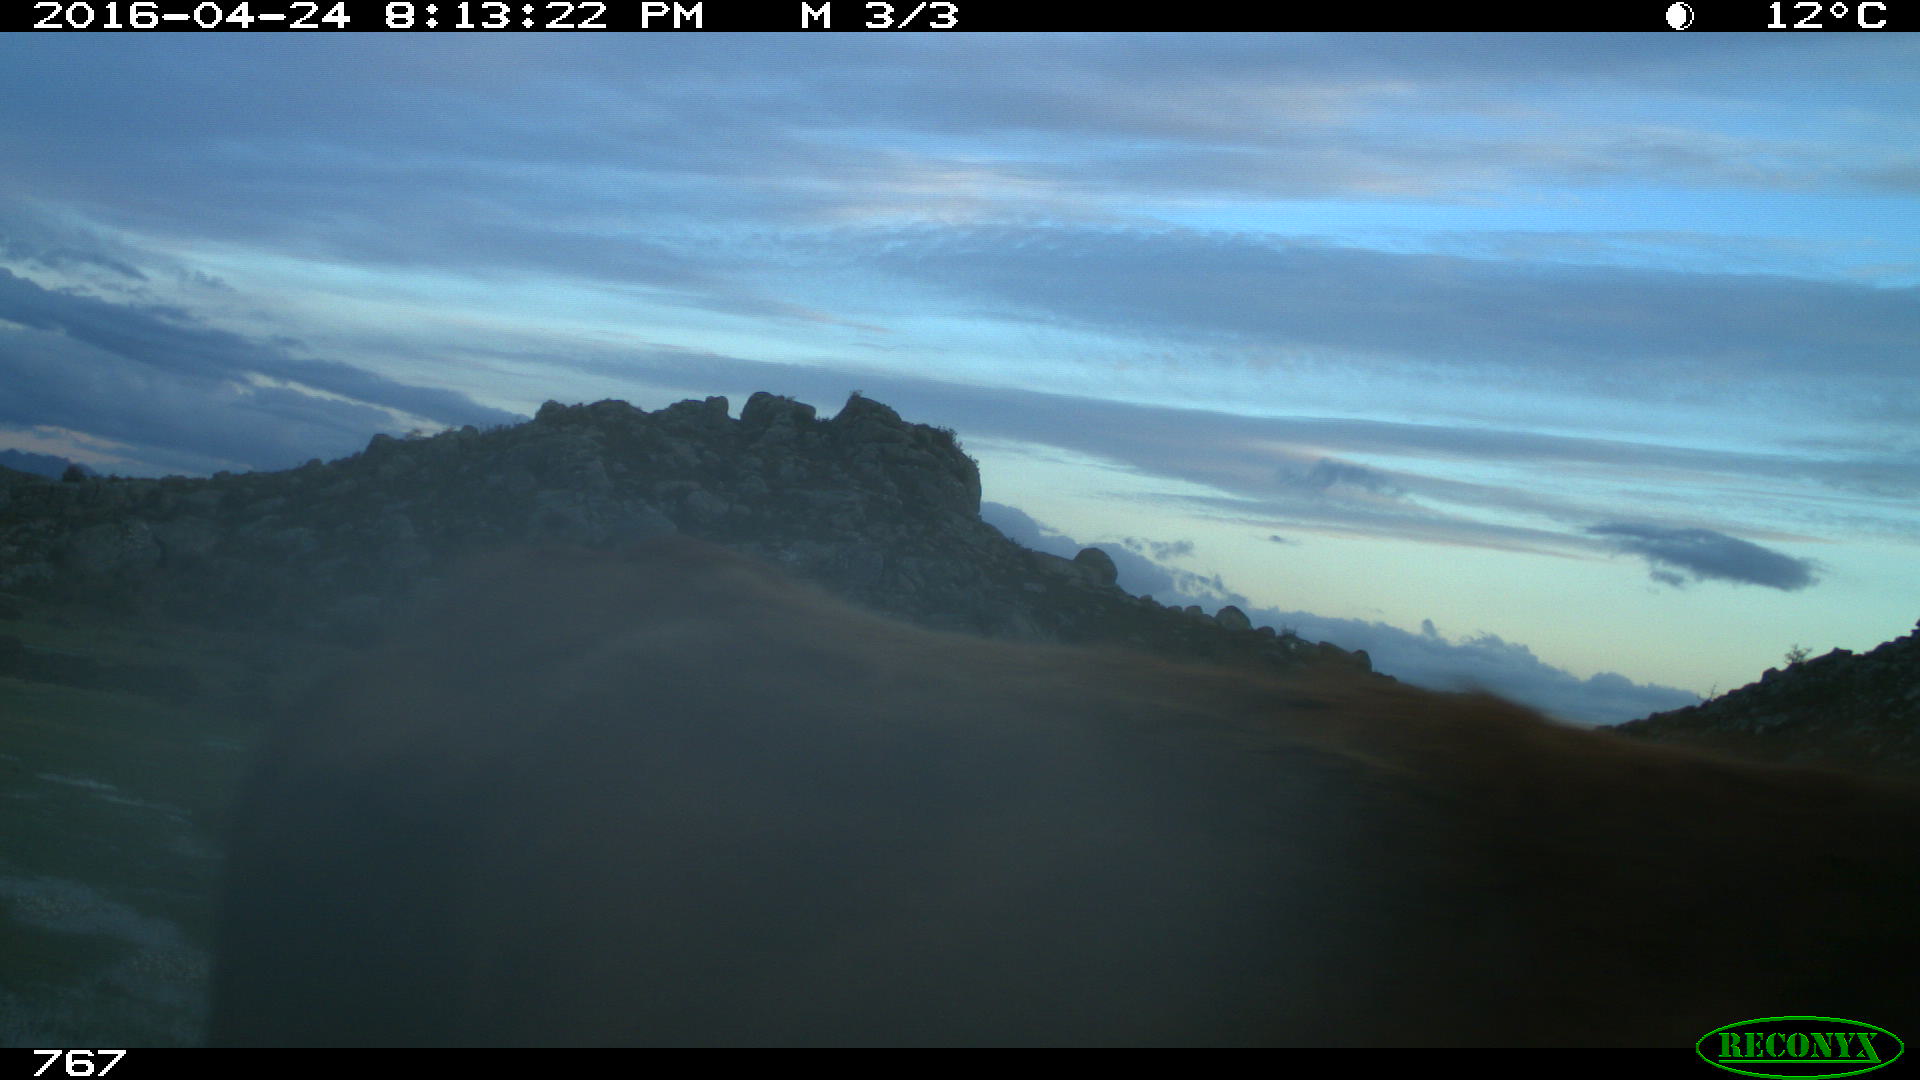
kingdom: Animalia
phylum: Chordata
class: Mammalia
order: Artiodactyla
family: Bovidae
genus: Bos
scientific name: Bos taurus
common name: Domesticated cattle
